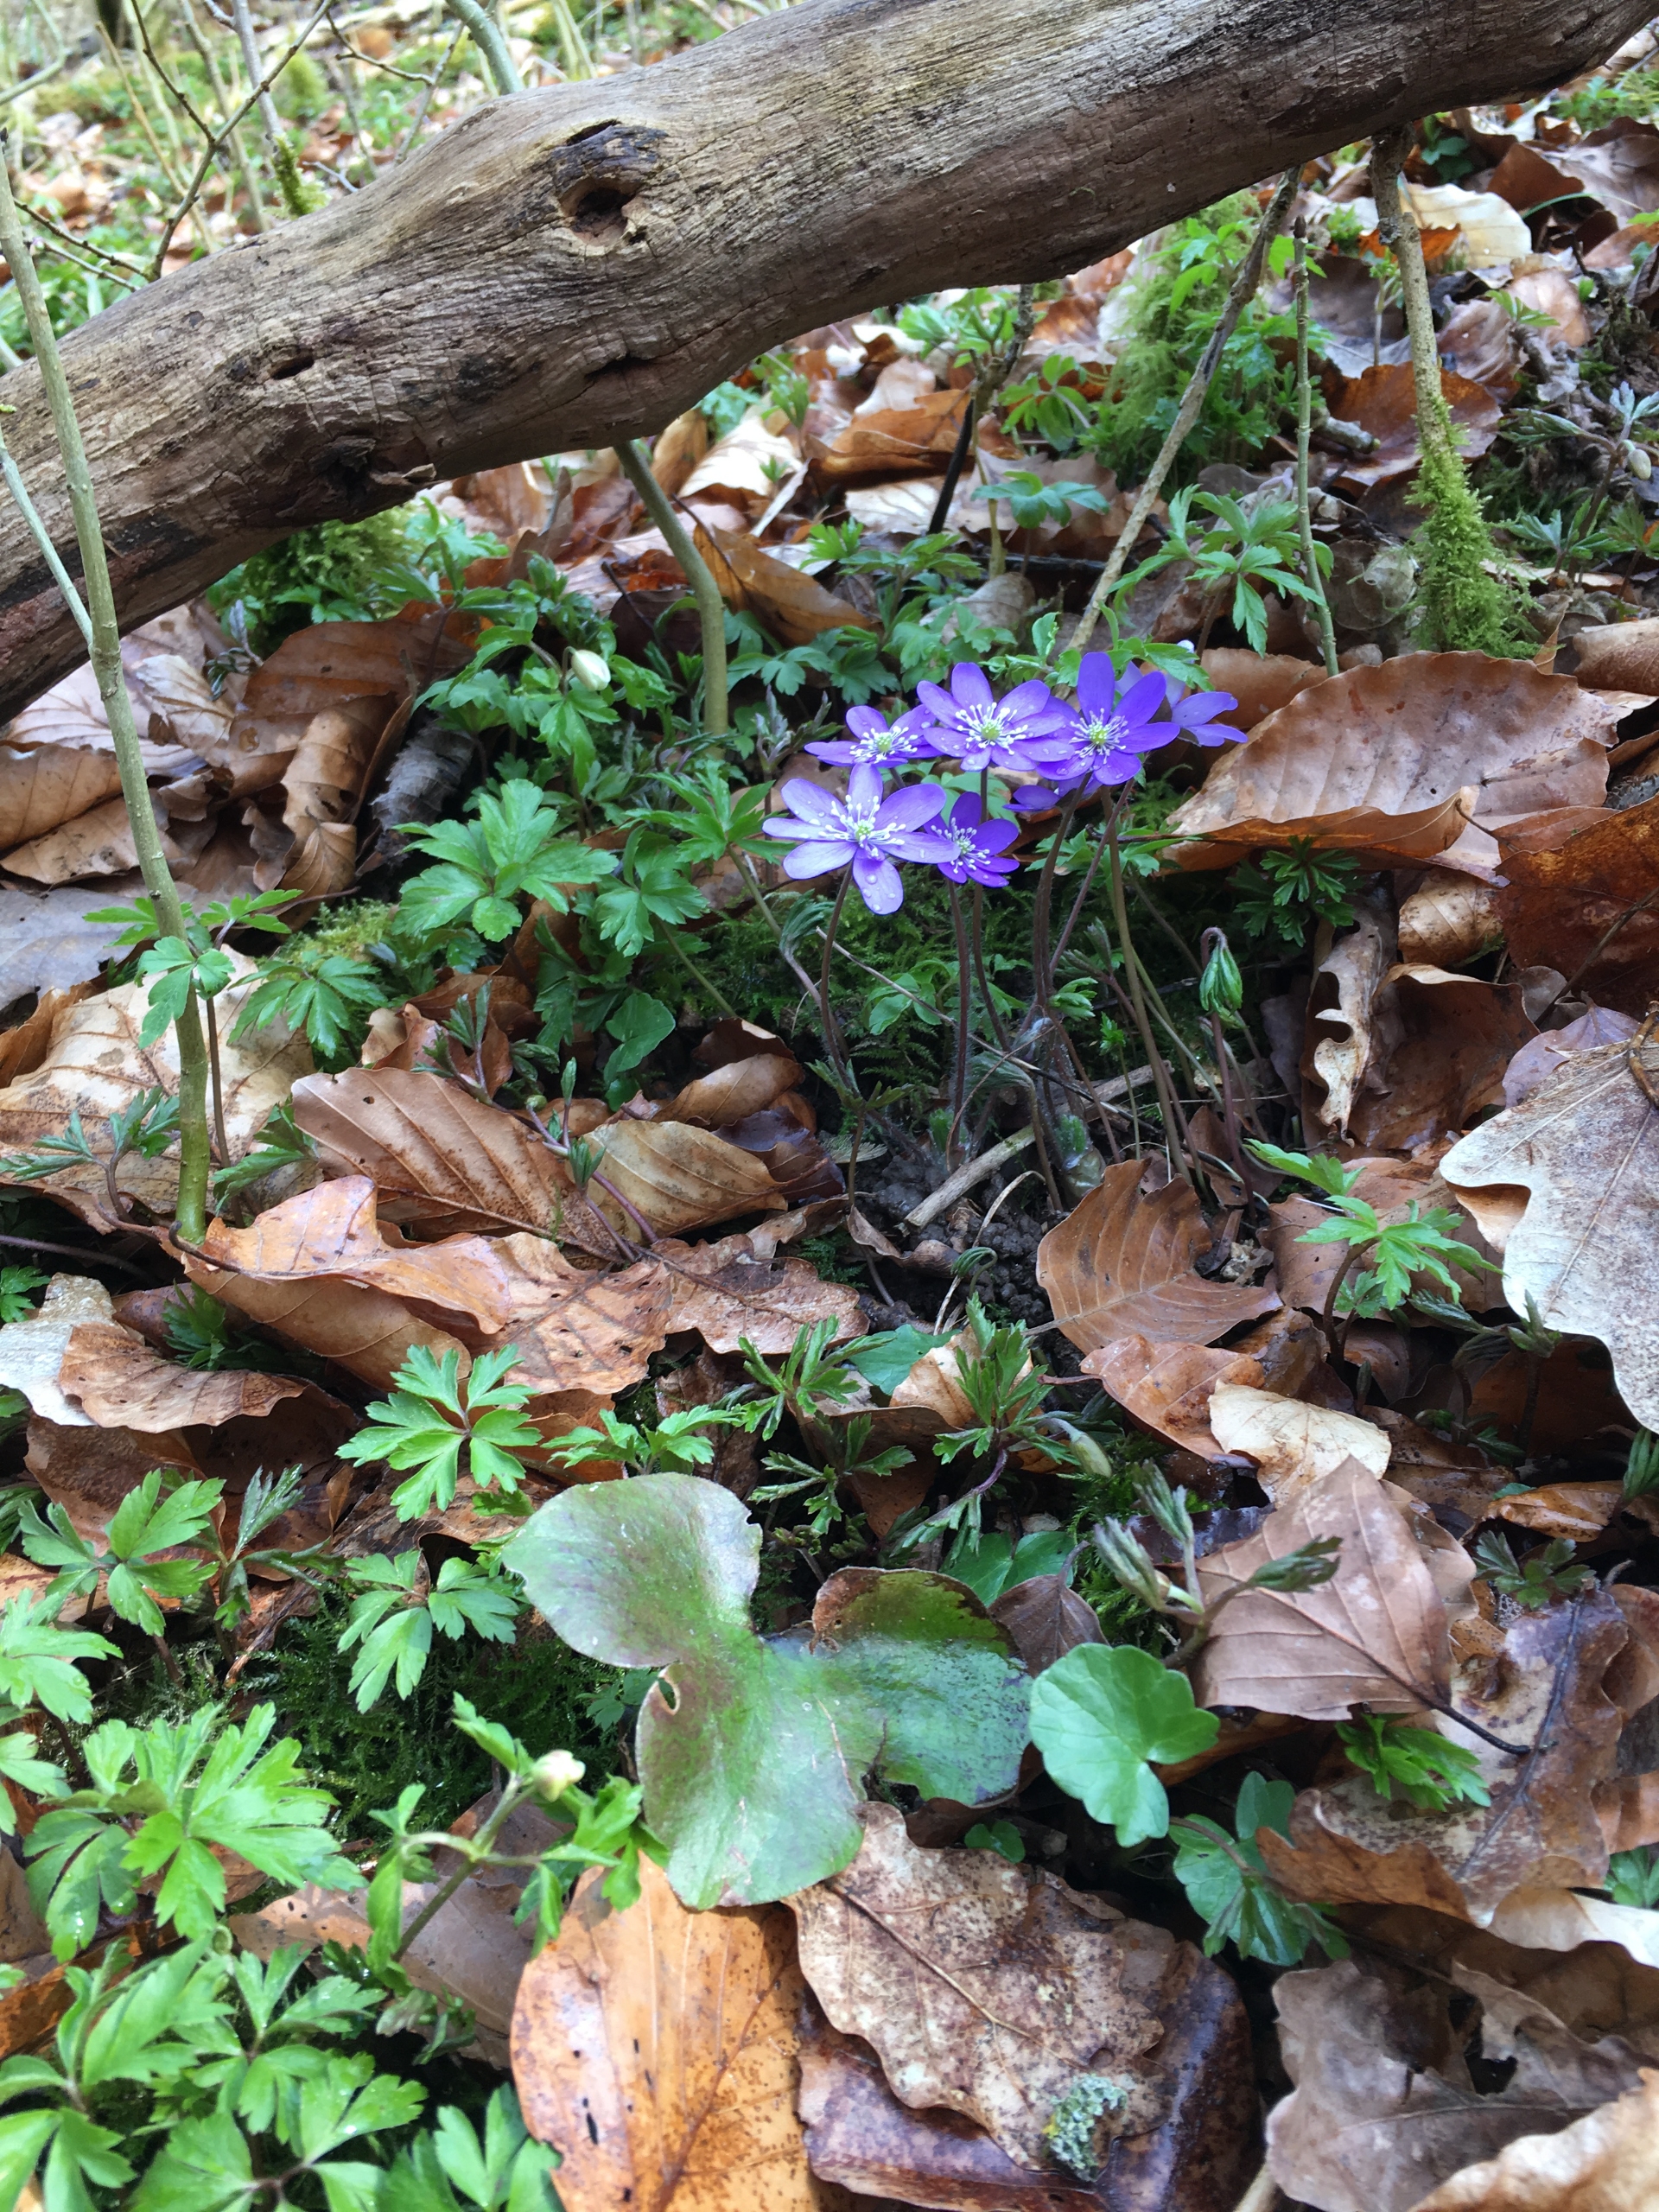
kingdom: Plantae
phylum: Tracheophyta
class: Magnoliopsida
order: Ranunculales
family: Ranunculaceae
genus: Hepatica
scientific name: Hepatica nobilis
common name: Blå anemone
